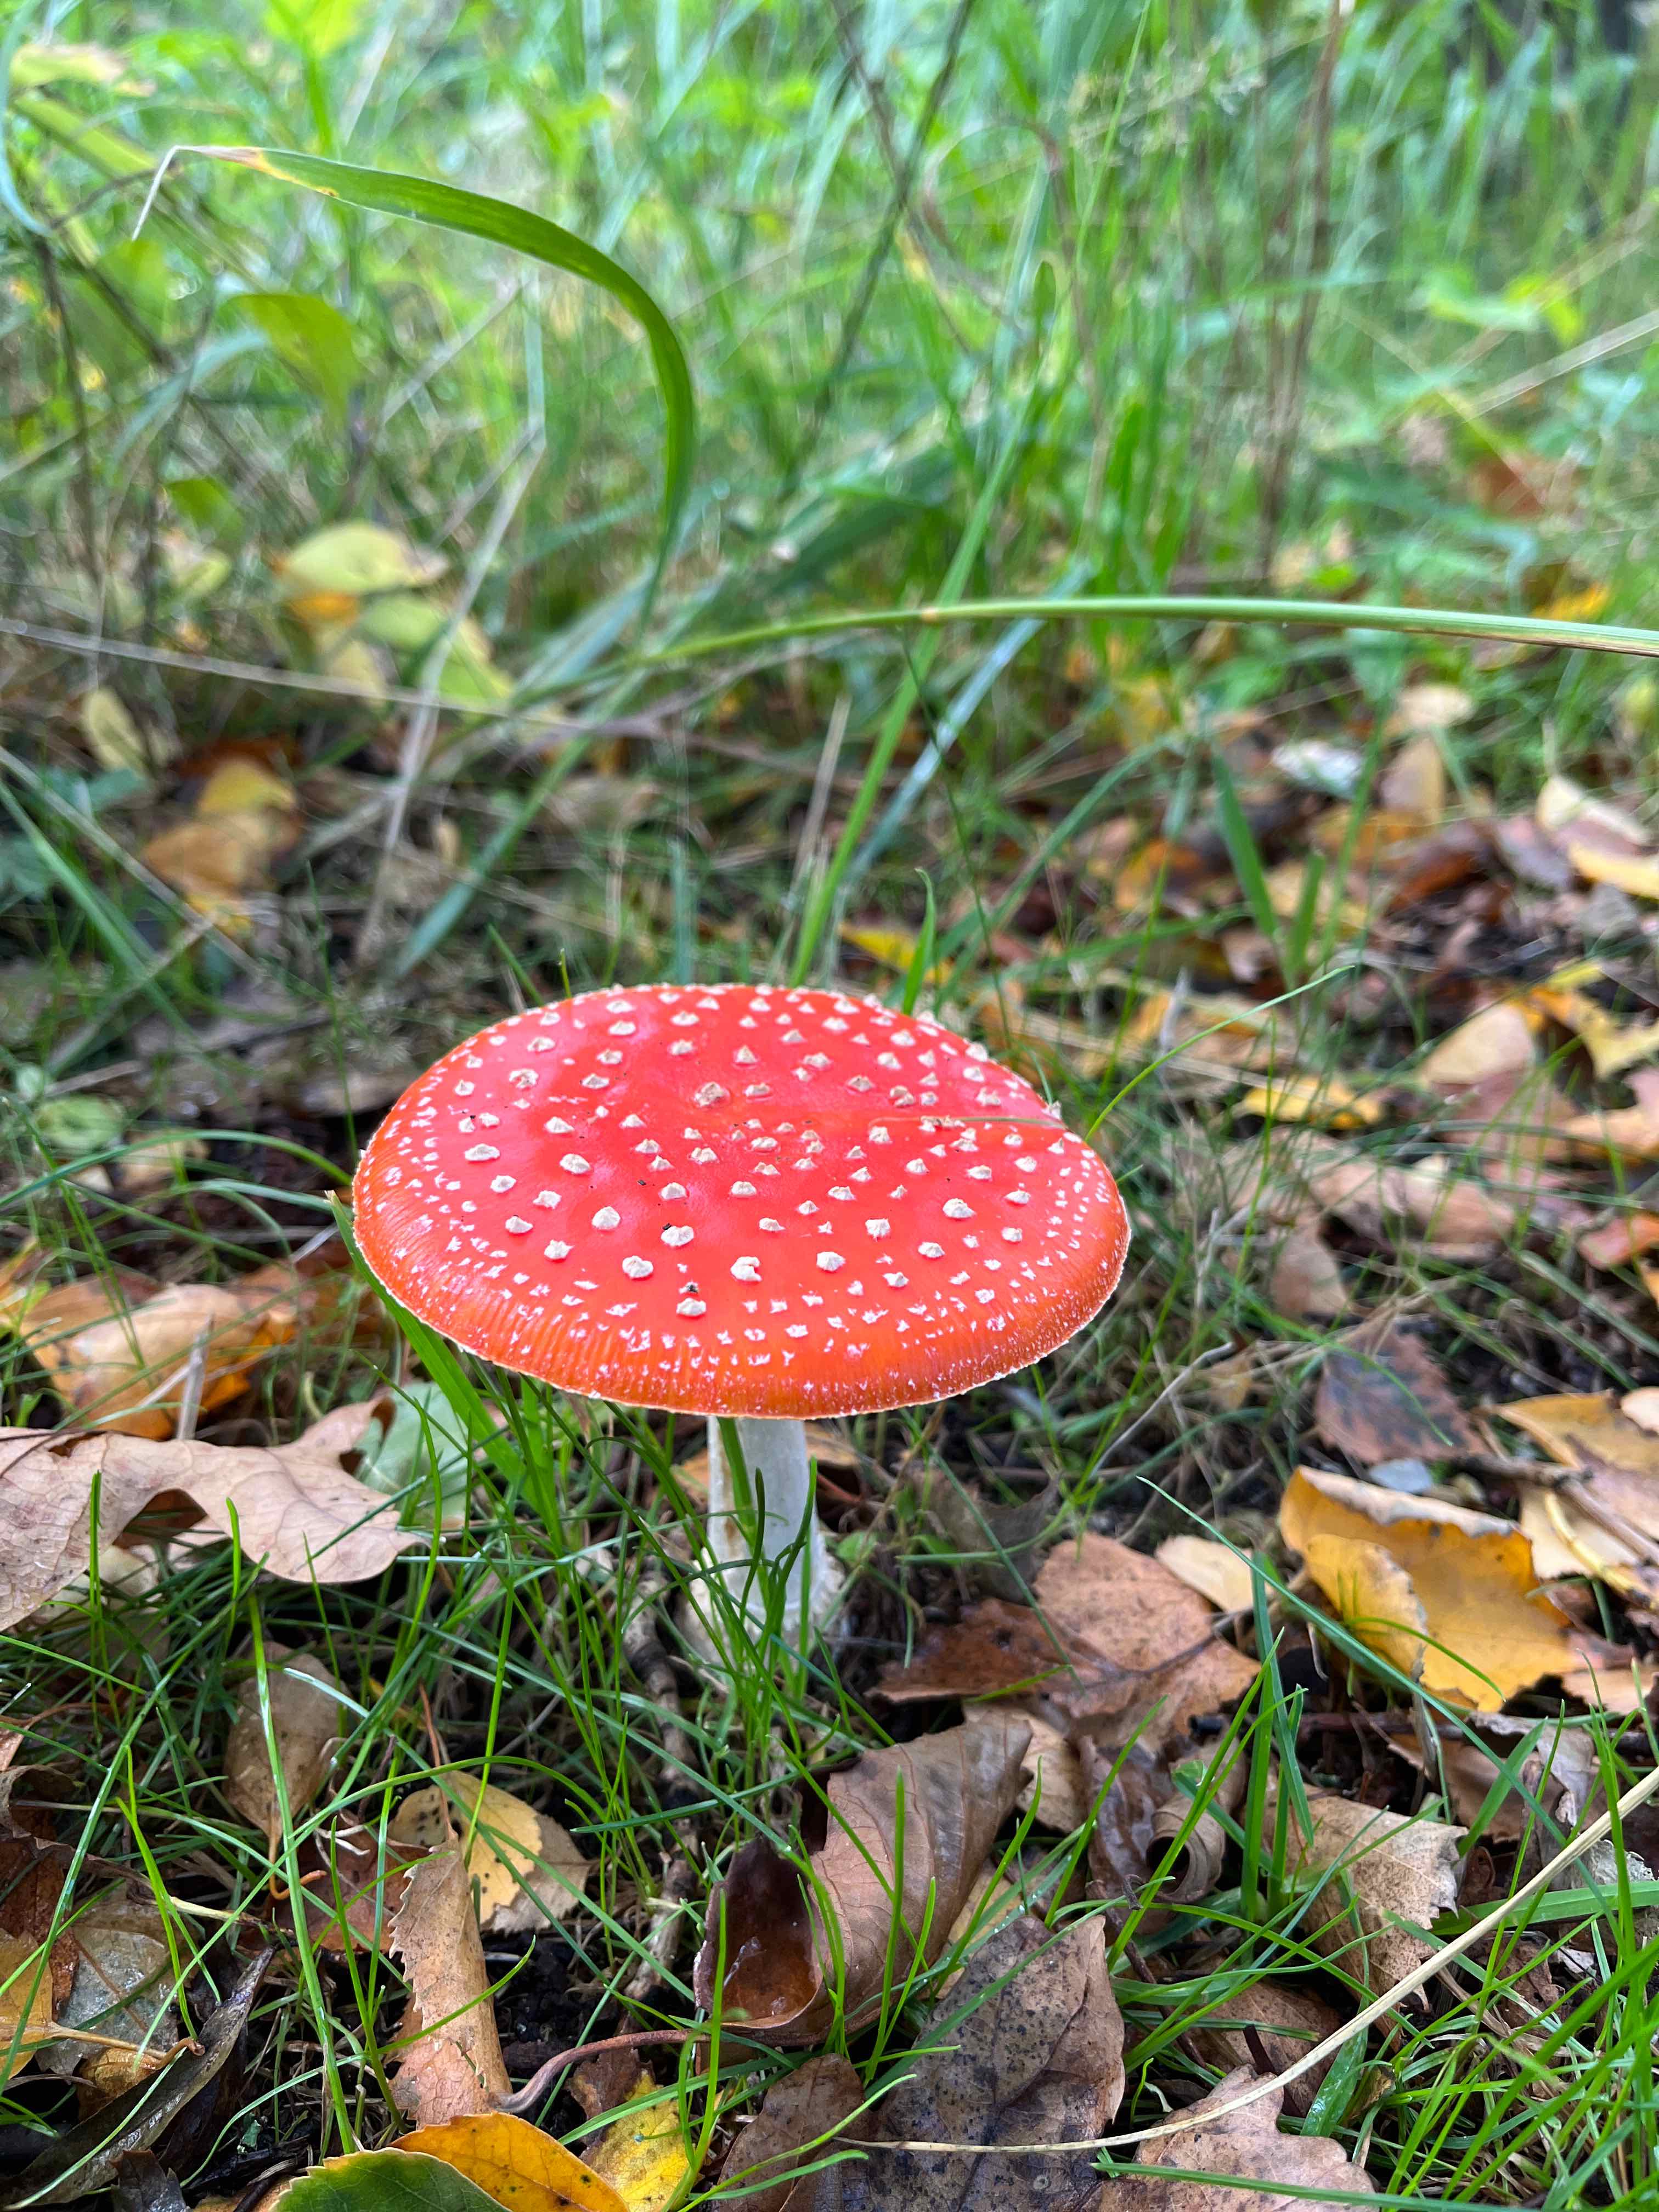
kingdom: Fungi
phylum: Basidiomycota
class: Agaricomycetes
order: Agaricales
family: Amanitaceae
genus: Amanita
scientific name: Amanita muscaria
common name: rød fluesvamp
